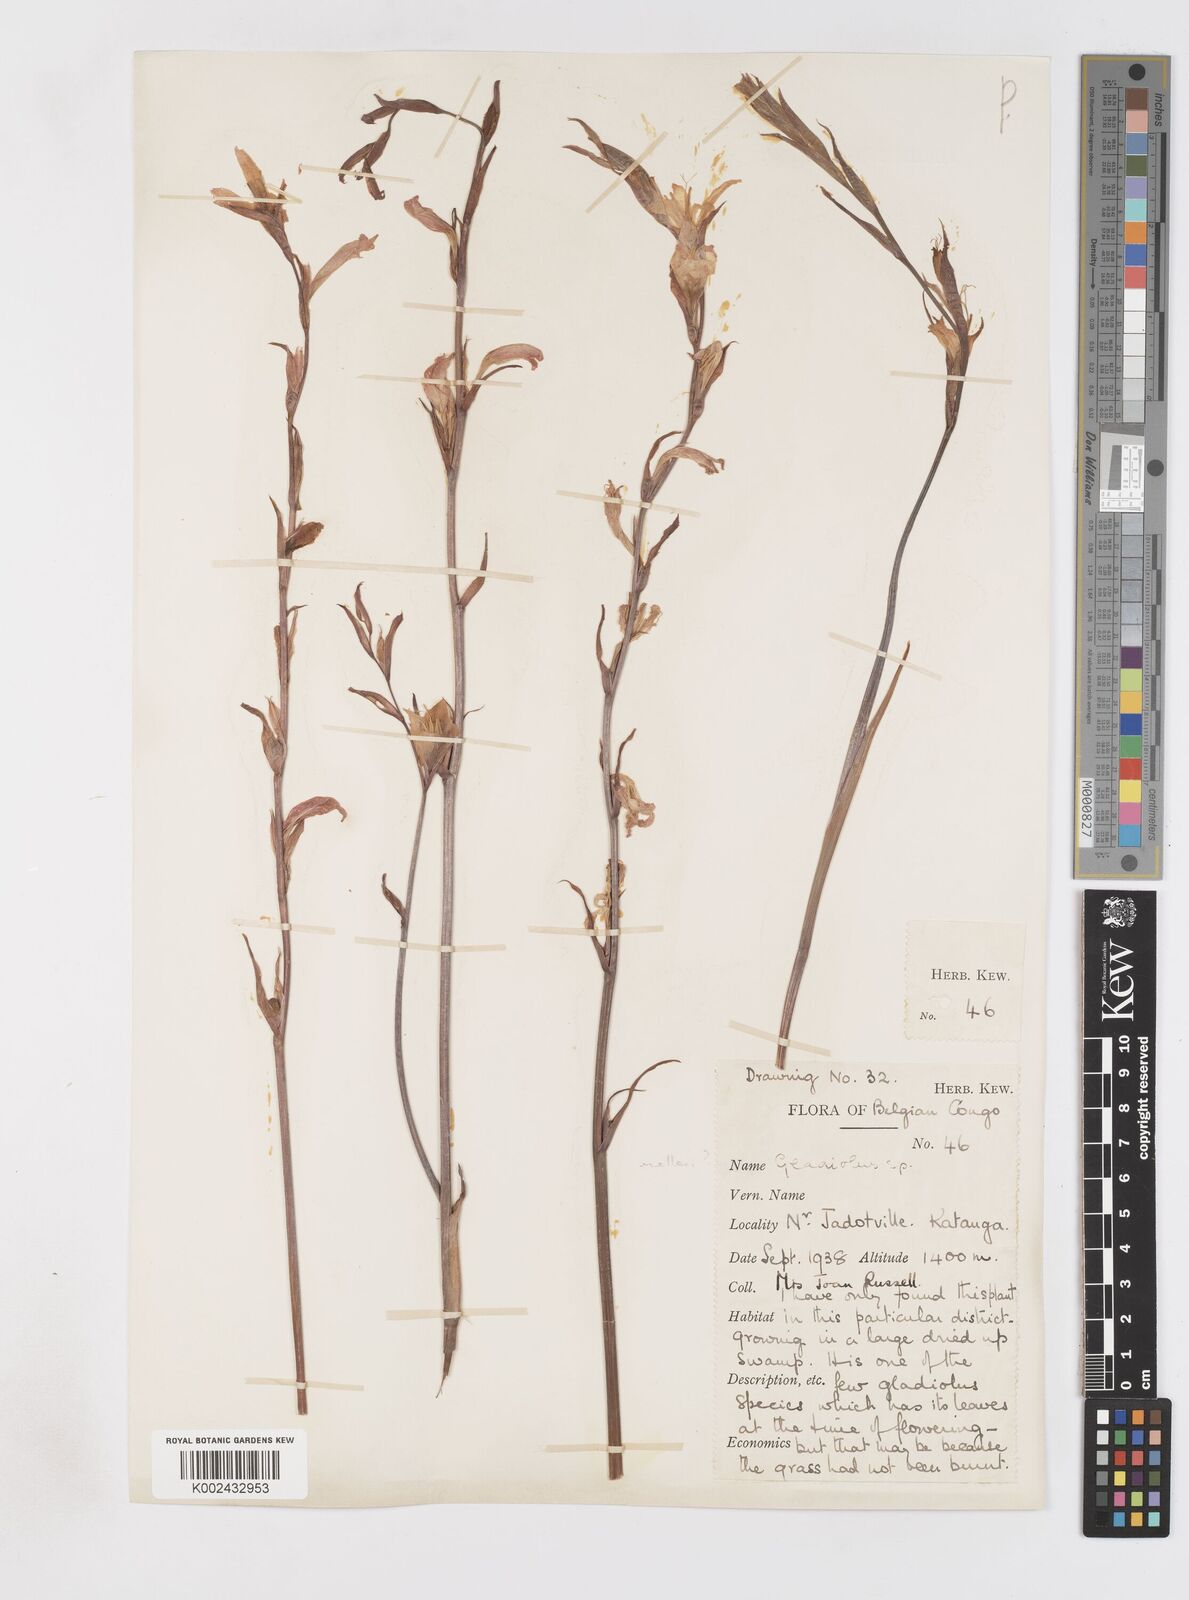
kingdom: Plantae
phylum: Tracheophyta
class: Liliopsida
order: Asparagales
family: Iridaceae
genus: Gladiolus
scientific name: Gladiolus melleri
